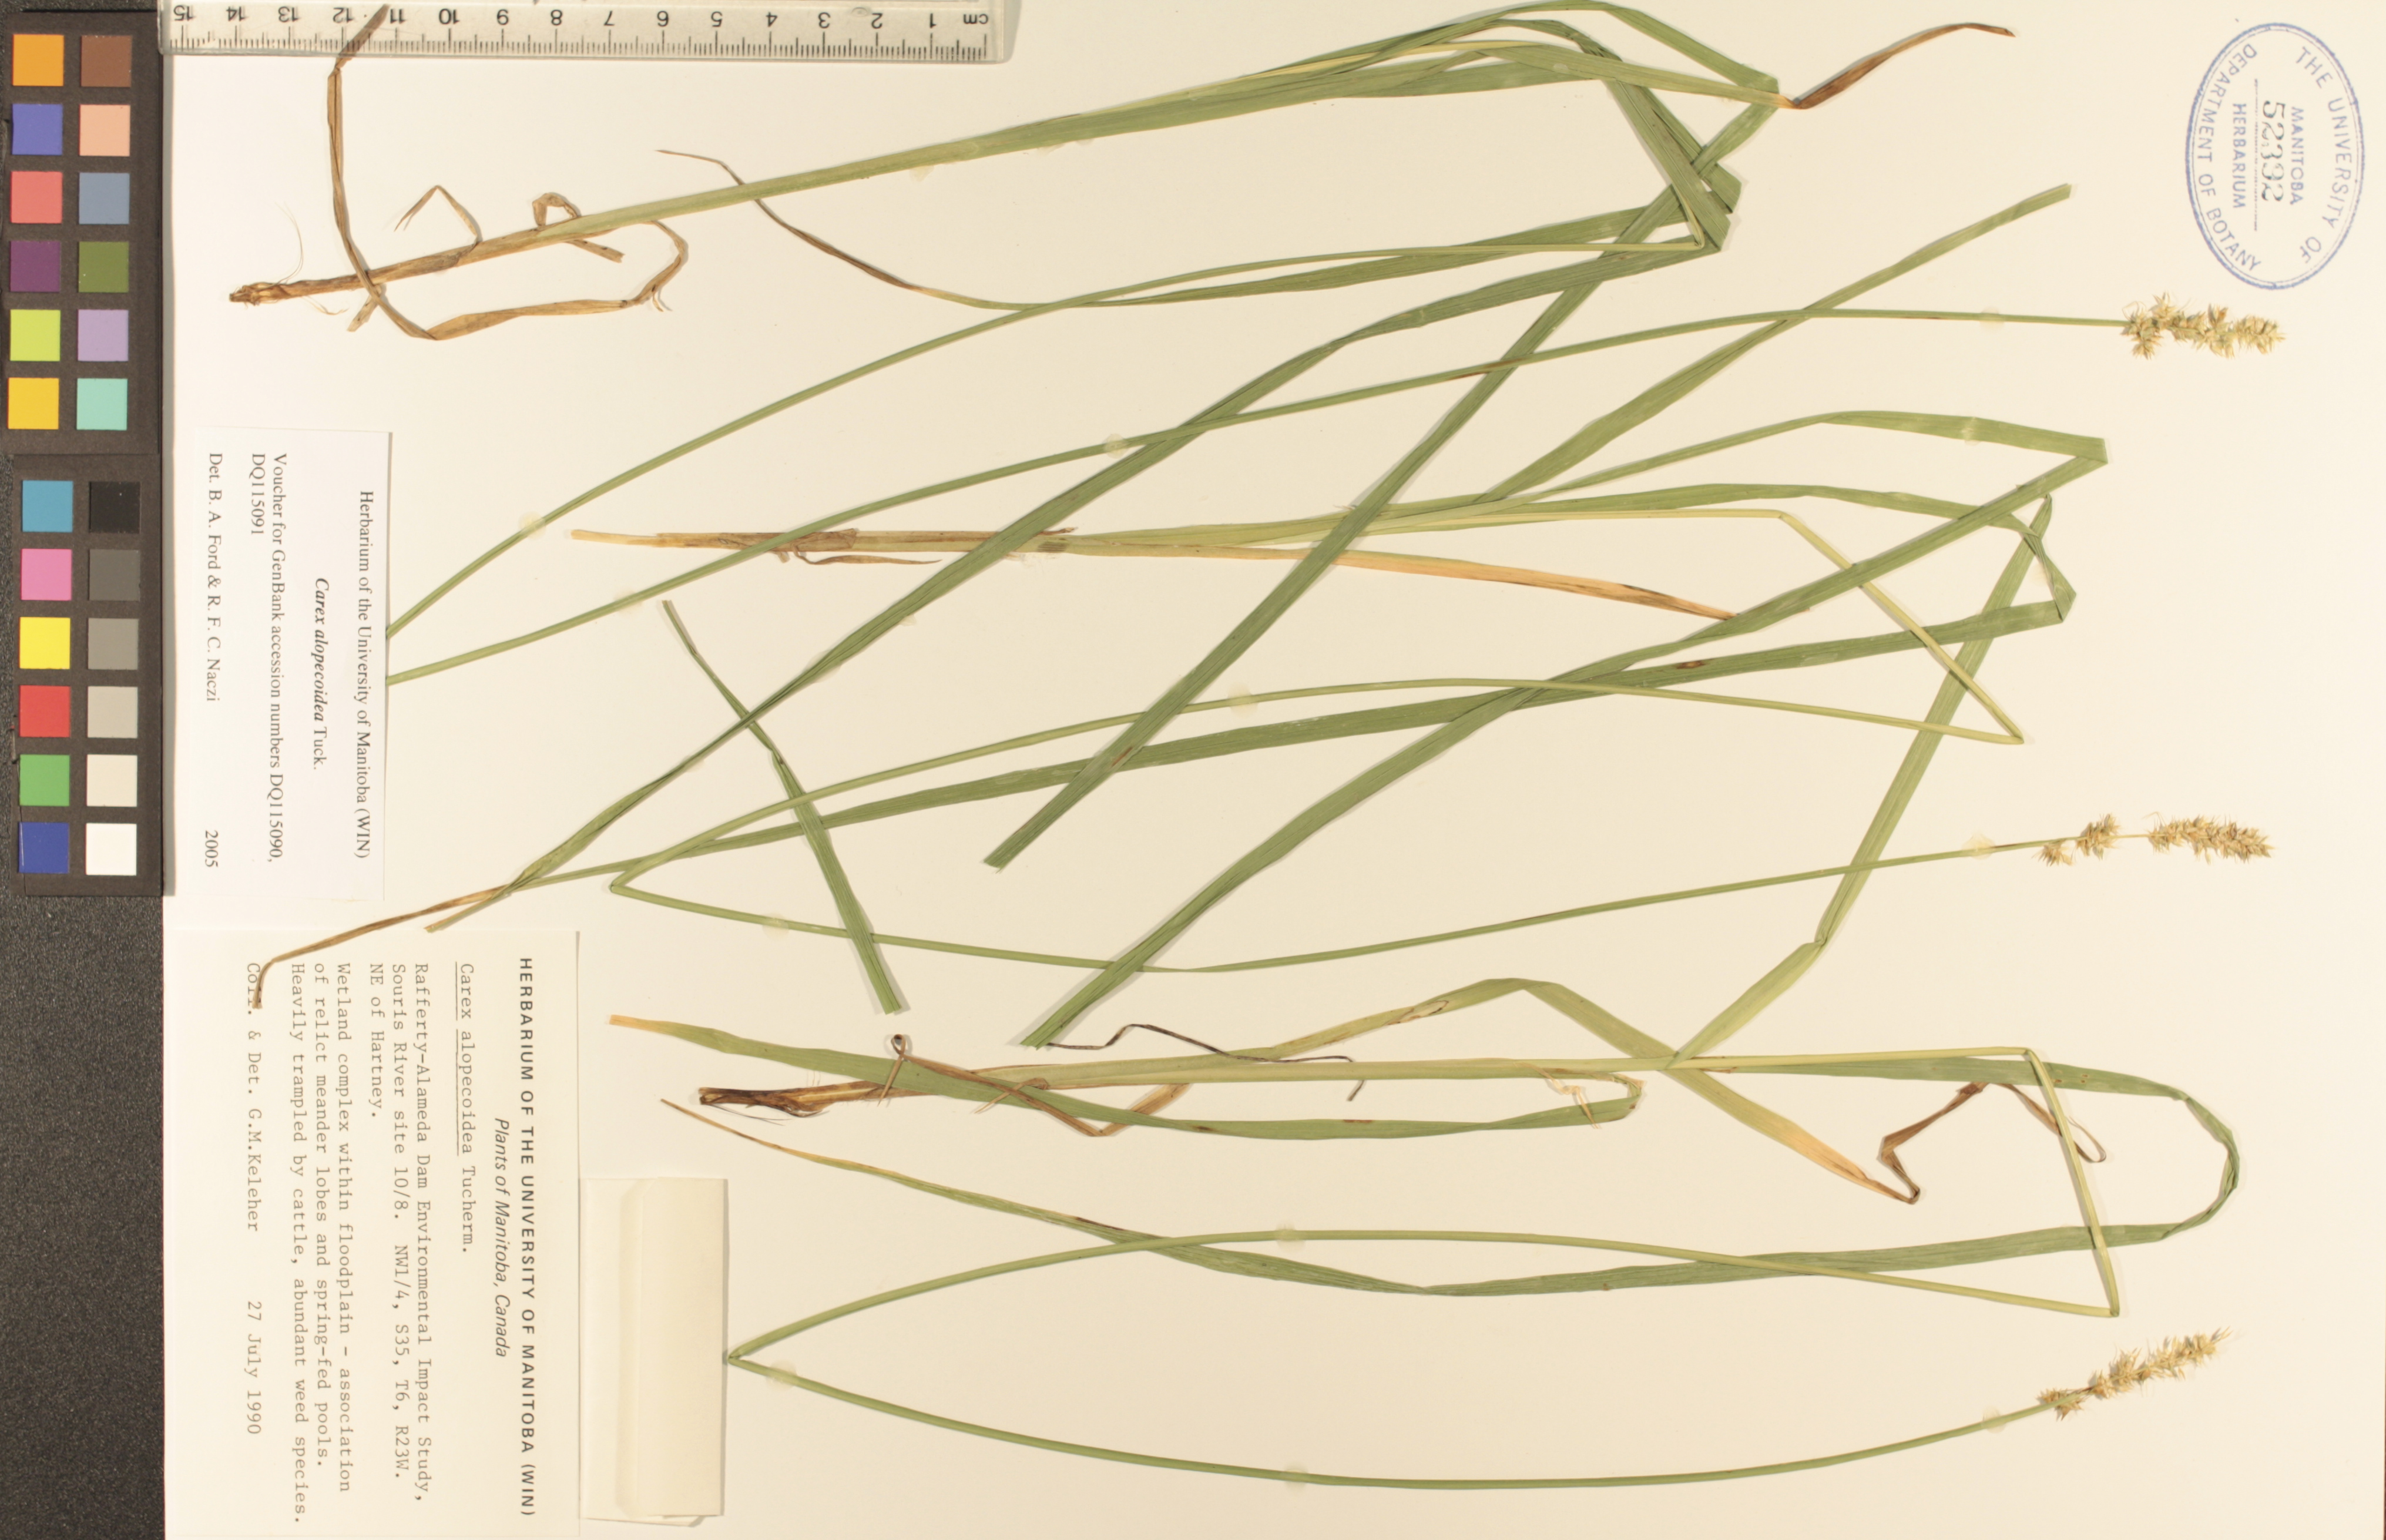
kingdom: Plantae
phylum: Tracheophyta
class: Liliopsida
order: Poales
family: Cyperaceae
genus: Carex
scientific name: Carex alopecoidea
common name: Brown-headed fox sedge
